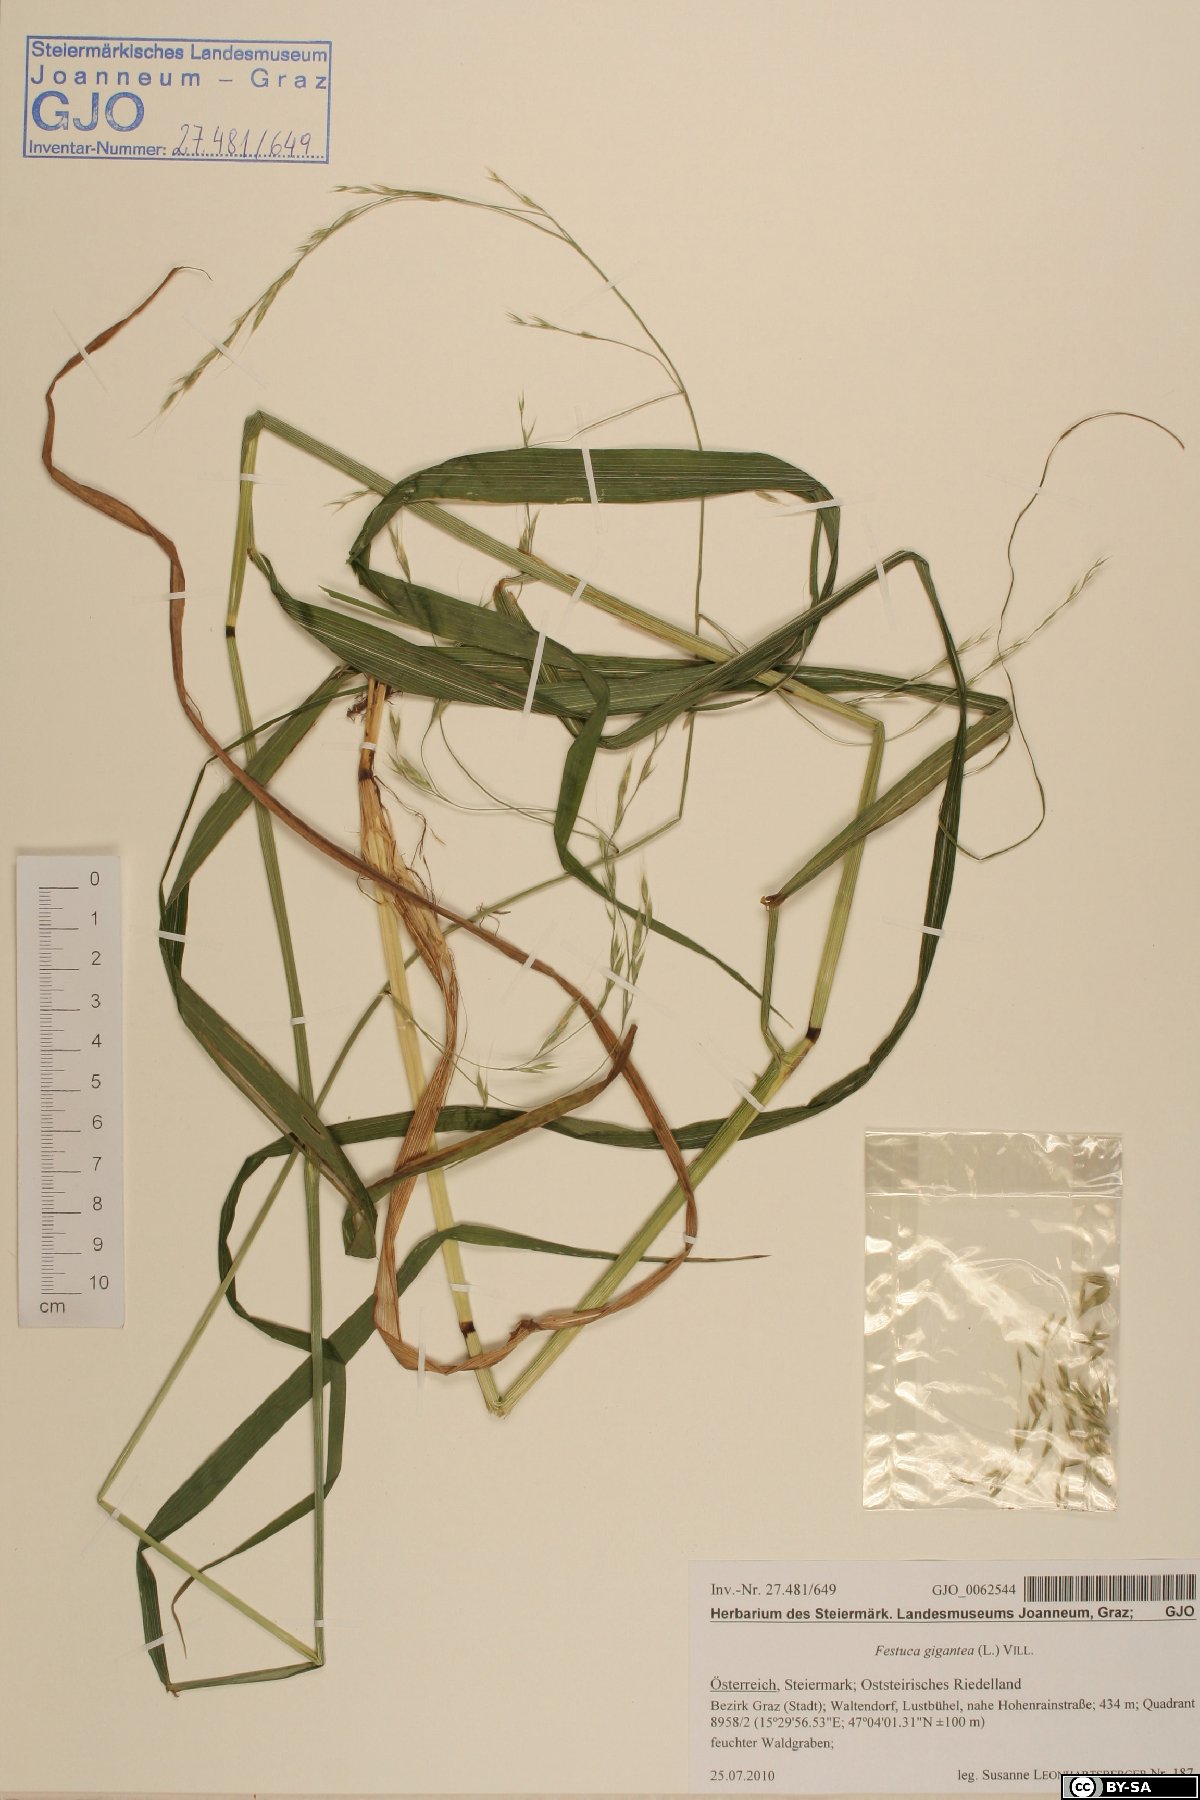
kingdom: Plantae
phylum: Tracheophyta
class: Liliopsida
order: Poales
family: Poaceae
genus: Lolium
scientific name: Lolium giganteum
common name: Giant fescue
